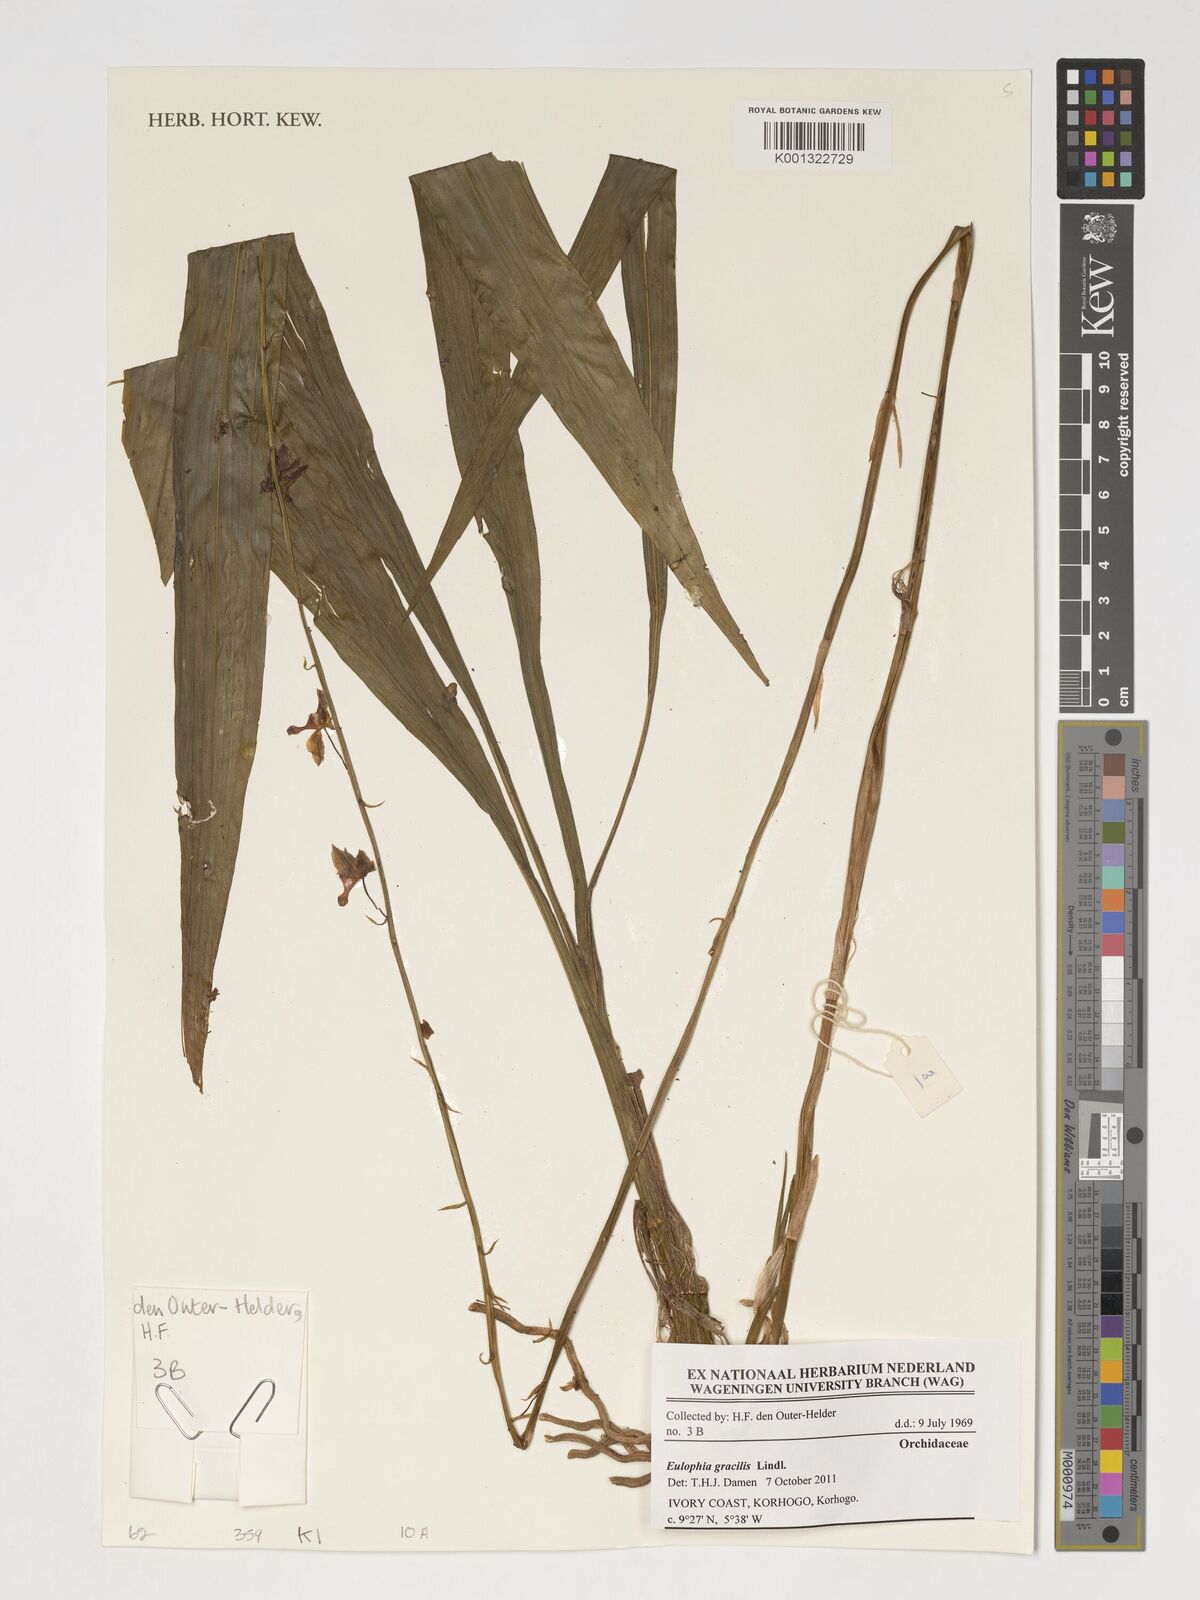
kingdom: Plantae
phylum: Tracheophyta
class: Liliopsida
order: Asparagales
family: Orchidaceae
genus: Eulophia
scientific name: Eulophia gracilis
